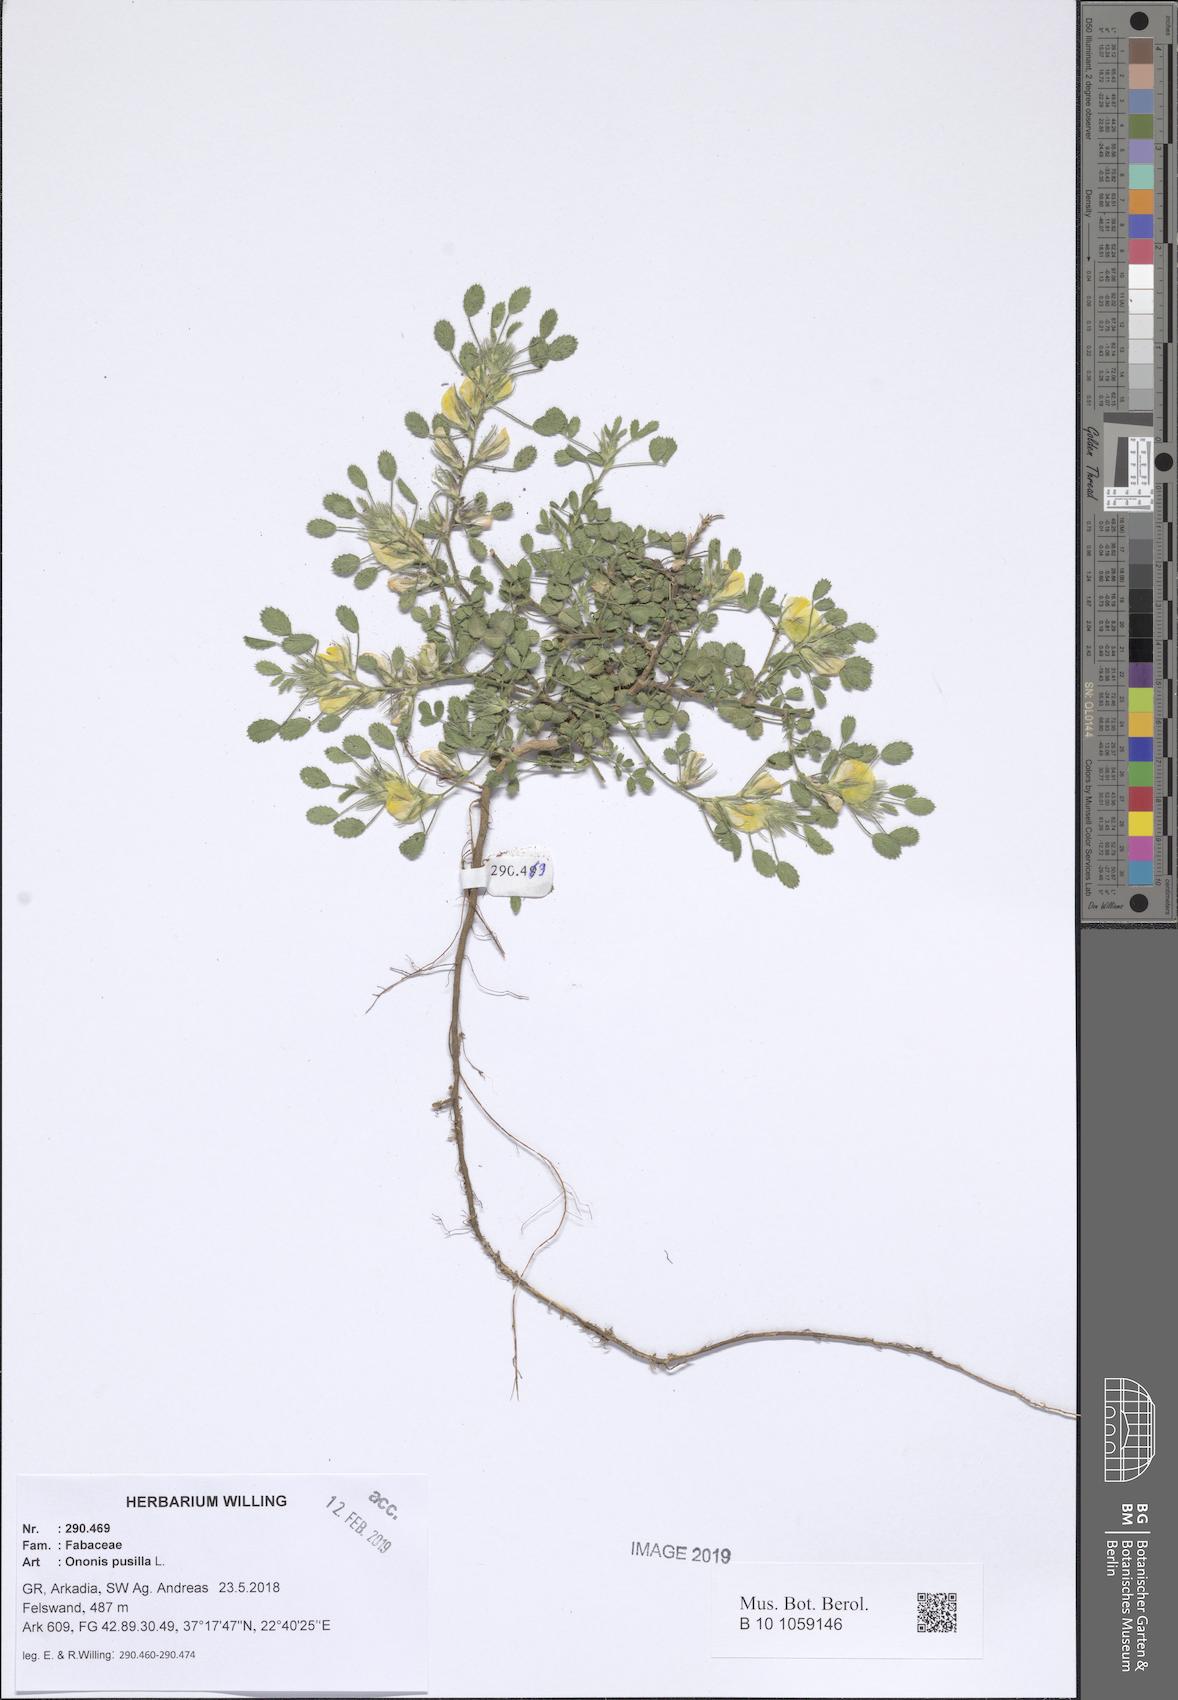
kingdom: Plantae
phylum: Tracheophyta
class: Magnoliopsida
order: Fabales
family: Fabaceae
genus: Ononis
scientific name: Ononis pusilla
